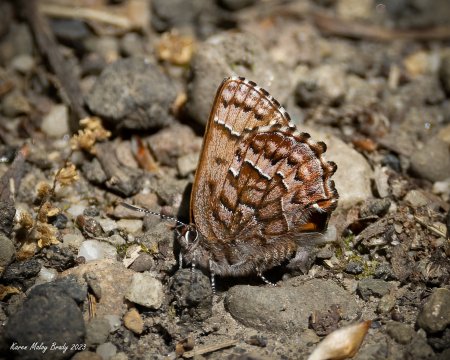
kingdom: Animalia
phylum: Arthropoda
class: Insecta
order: Lepidoptera
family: Lycaenidae
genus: Incisalia
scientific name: Incisalia niphon
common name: Eastern Pine Elfin
